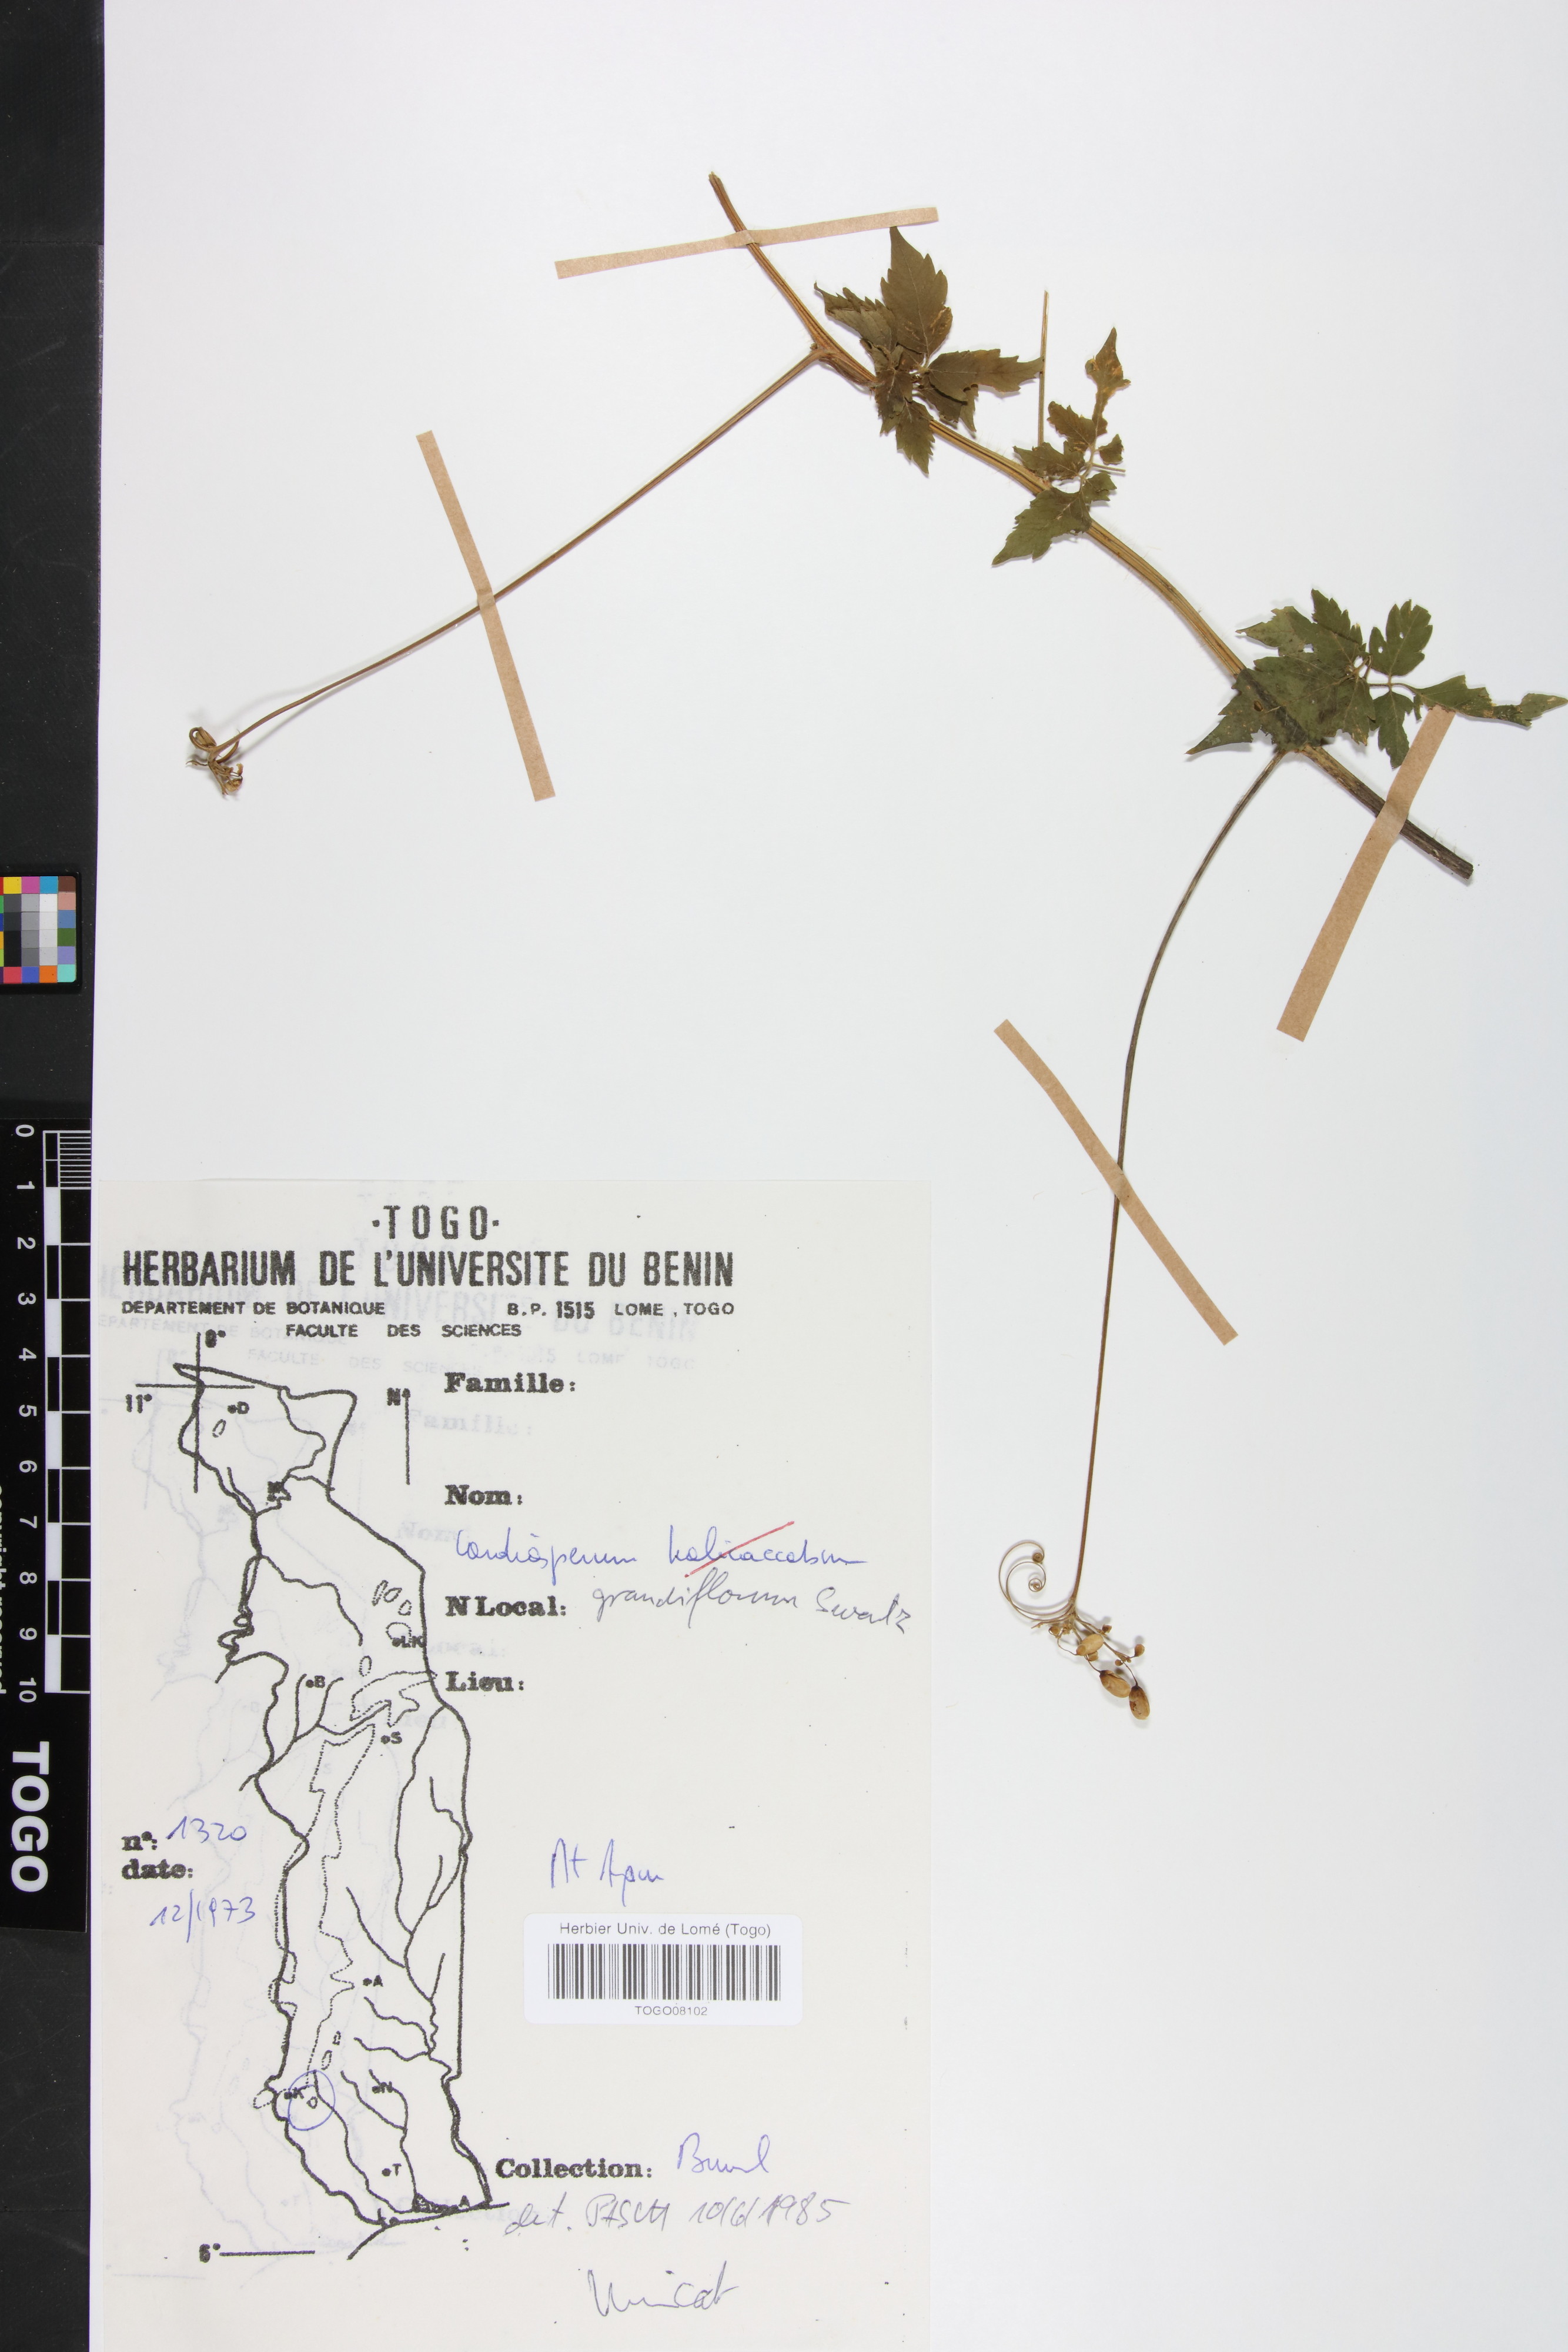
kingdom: Plantae
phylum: Tracheophyta
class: Magnoliopsida
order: Sapindales
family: Sapindaceae
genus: Cardiospermum
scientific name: Cardiospermum grandiflorum
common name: Balloon vine
